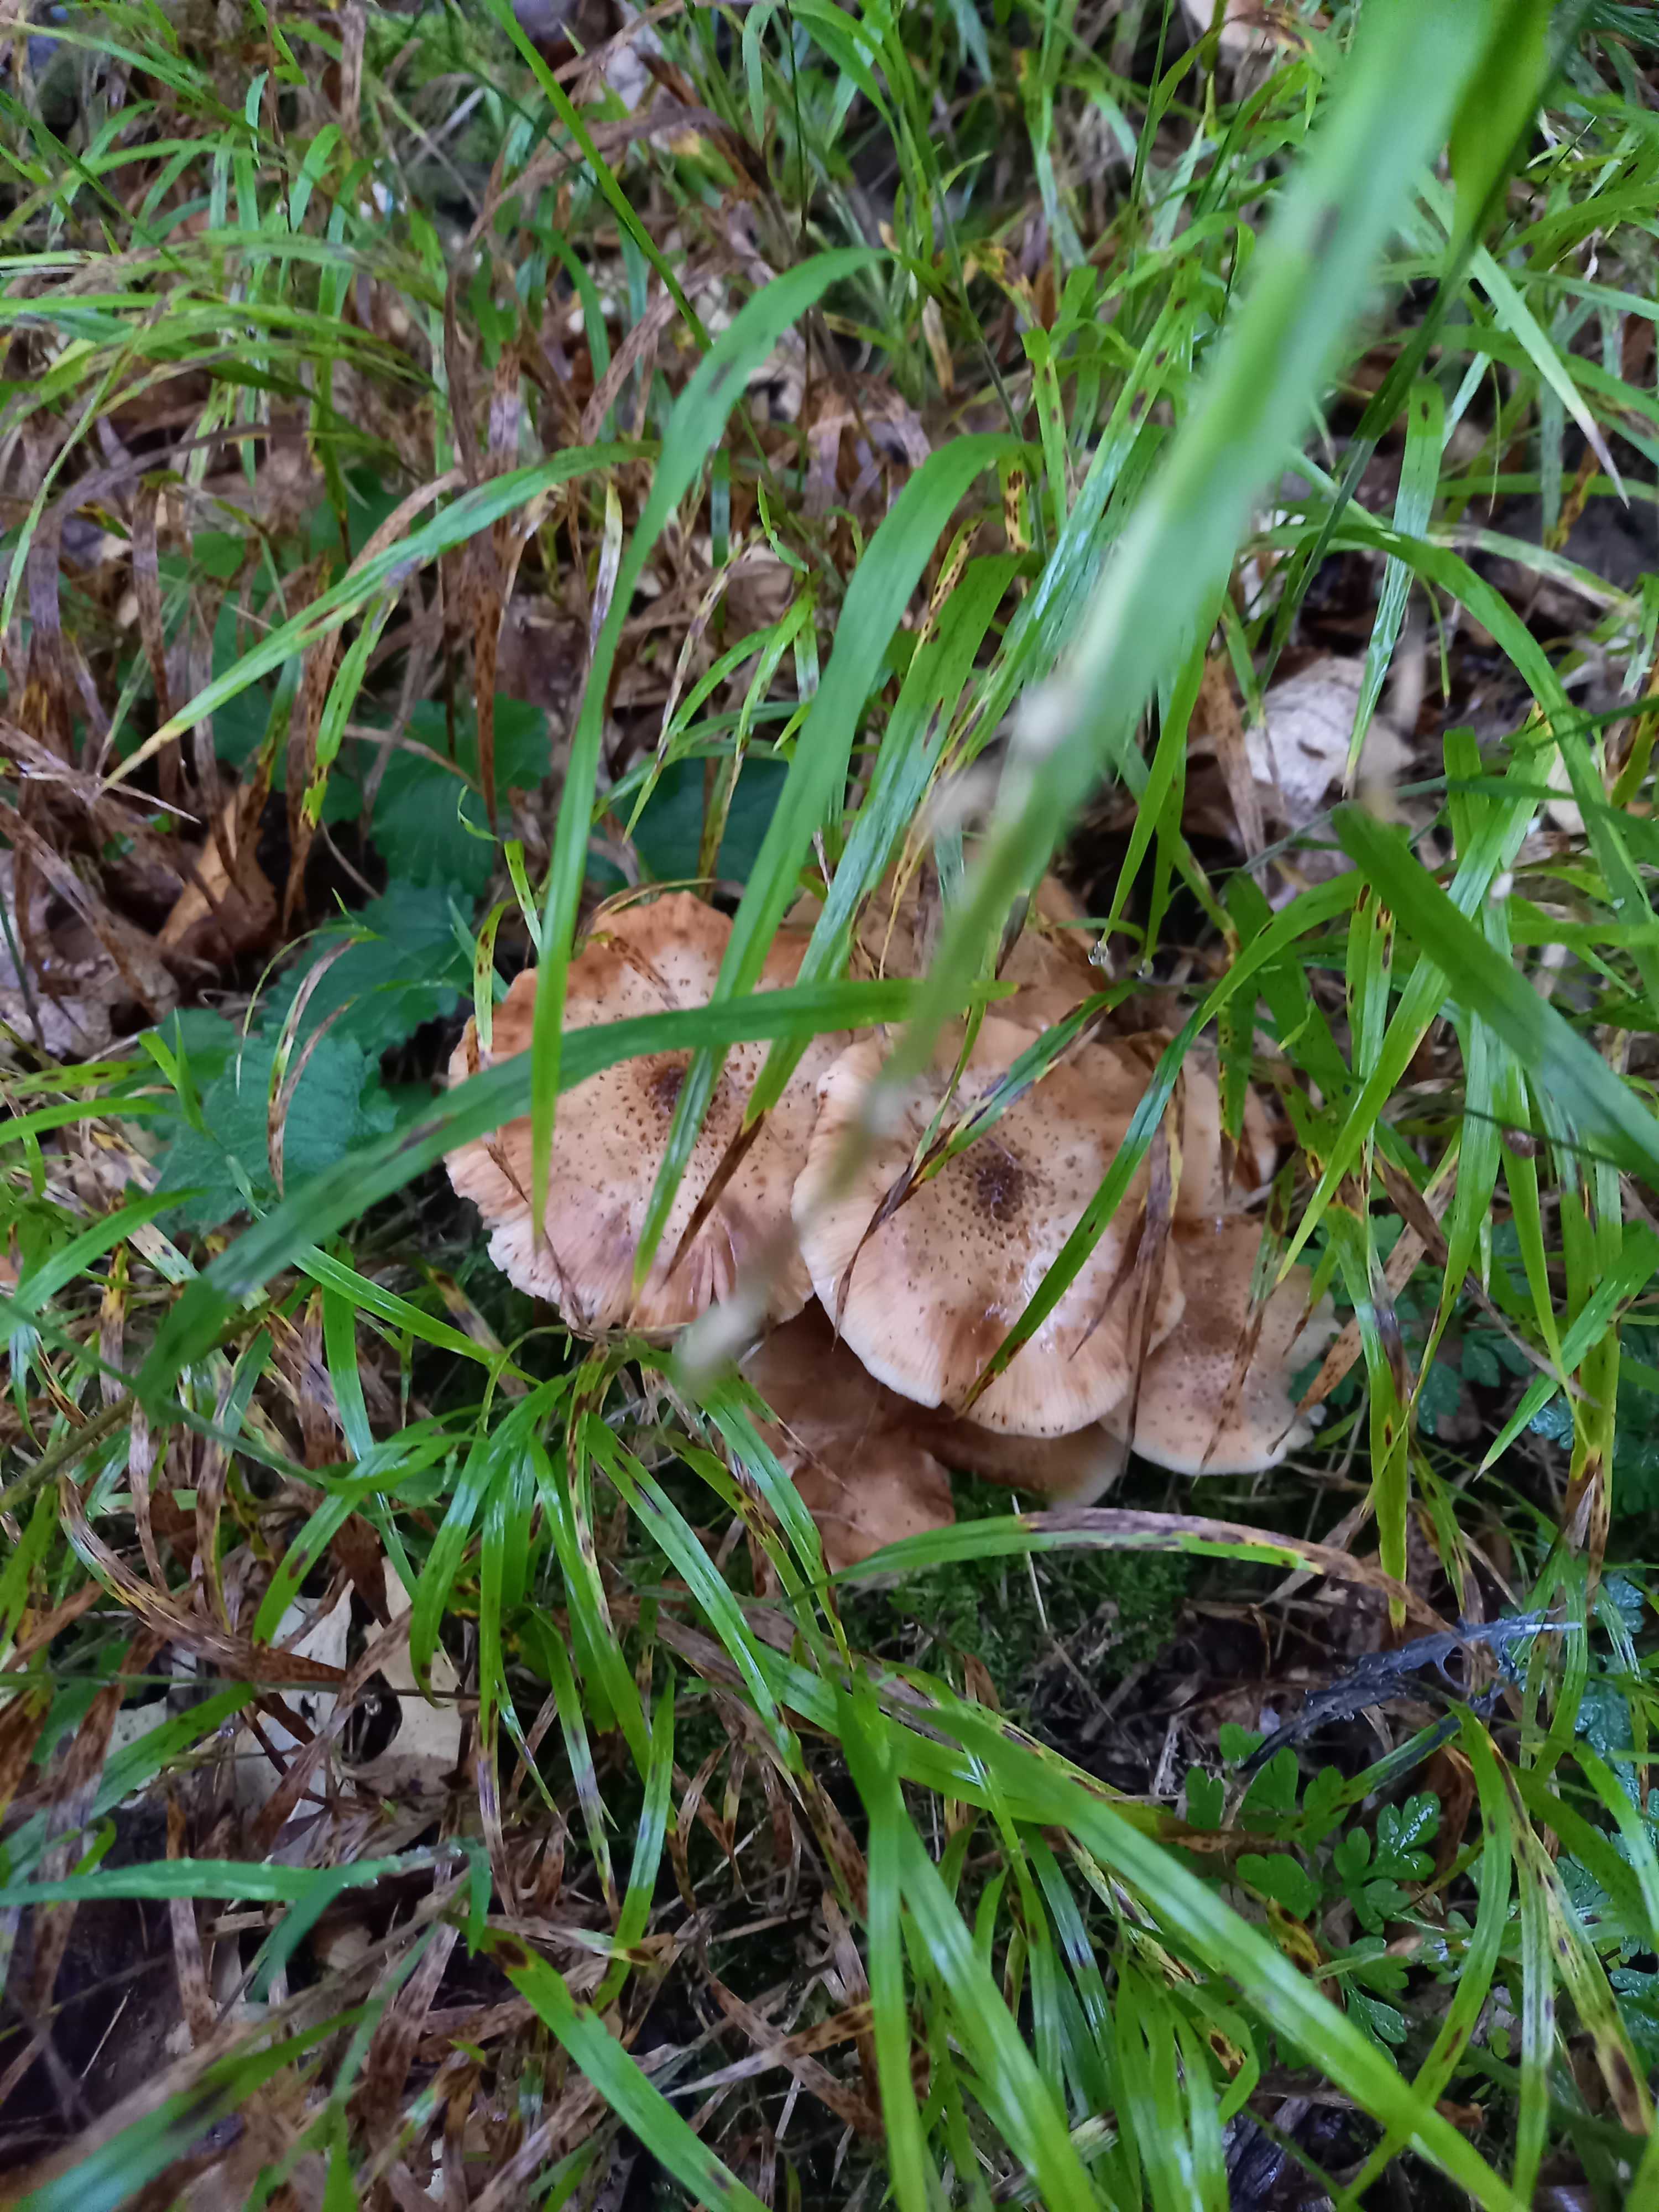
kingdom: Fungi
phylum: Basidiomycota
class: Agaricomycetes
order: Agaricales
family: Physalacriaceae
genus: Armillaria
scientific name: Armillaria lutea
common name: køllestokket honningsvamp
